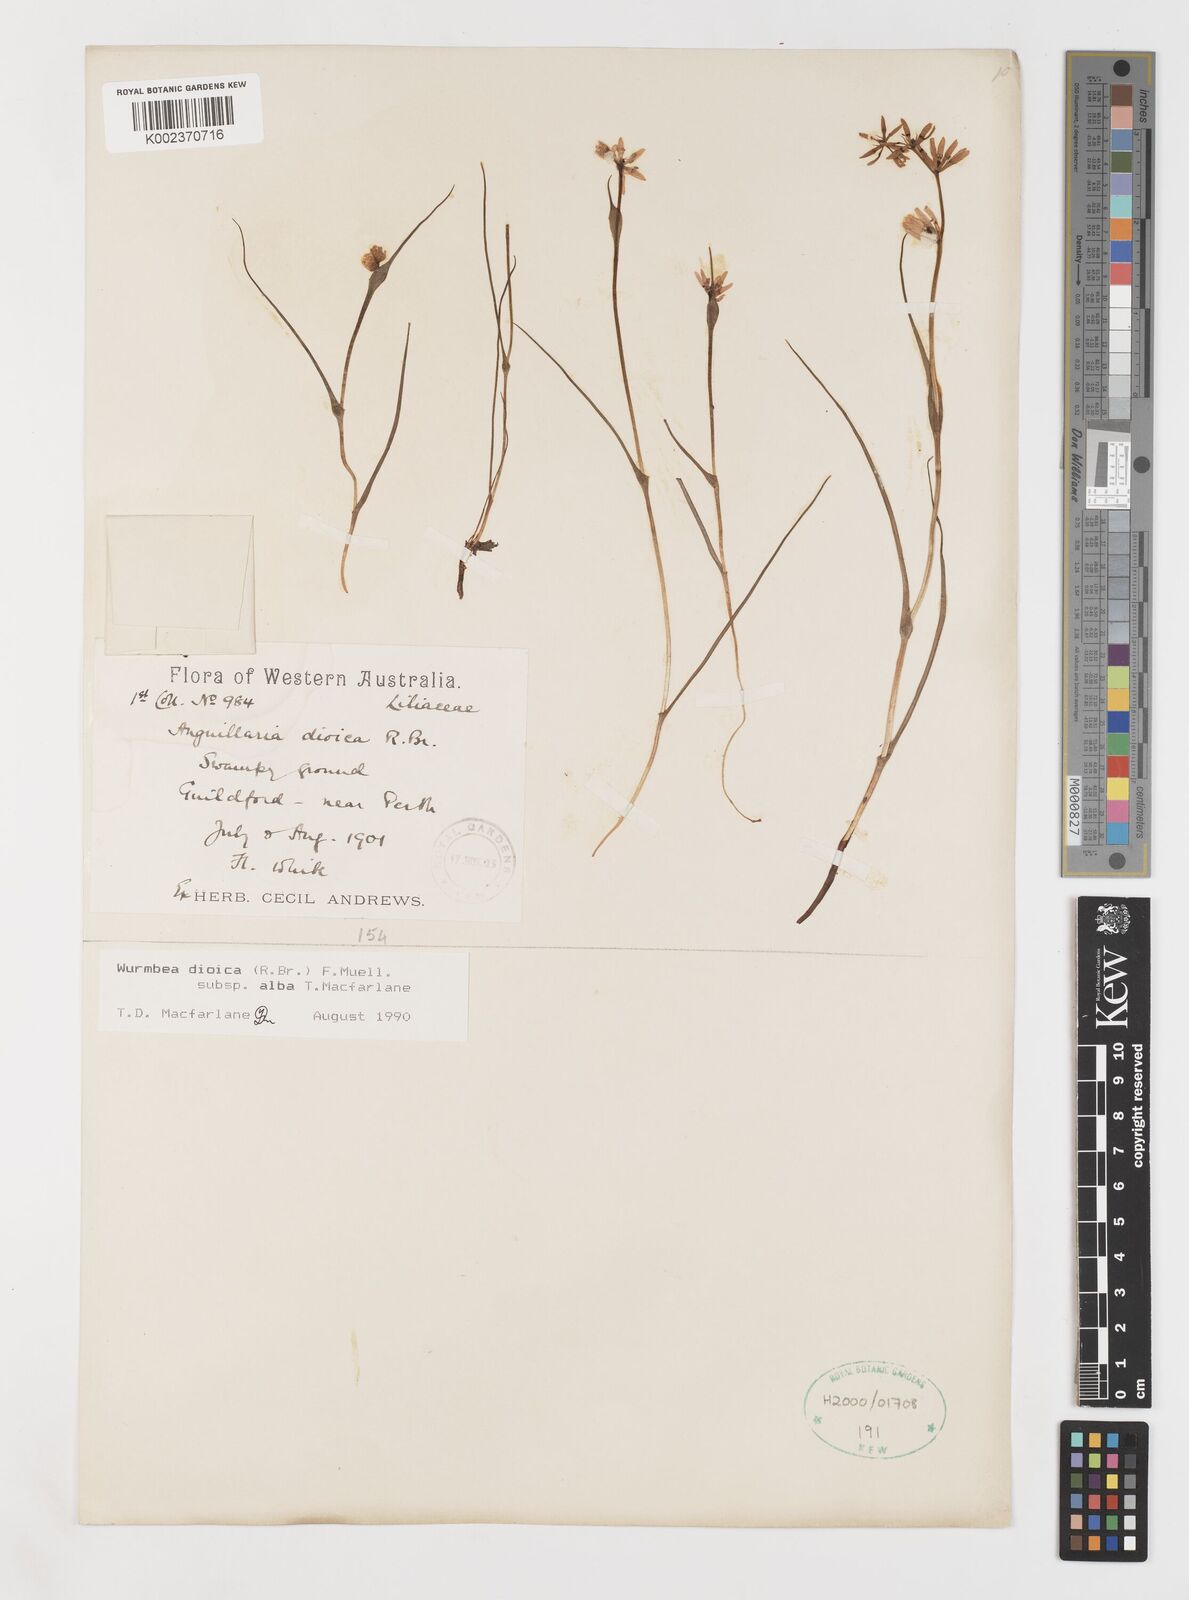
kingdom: Plantae
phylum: Tracheophyta
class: Liliopsida
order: Liliales
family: Colchicaceae
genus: Wurmbea
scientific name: Wurmbea dioica
